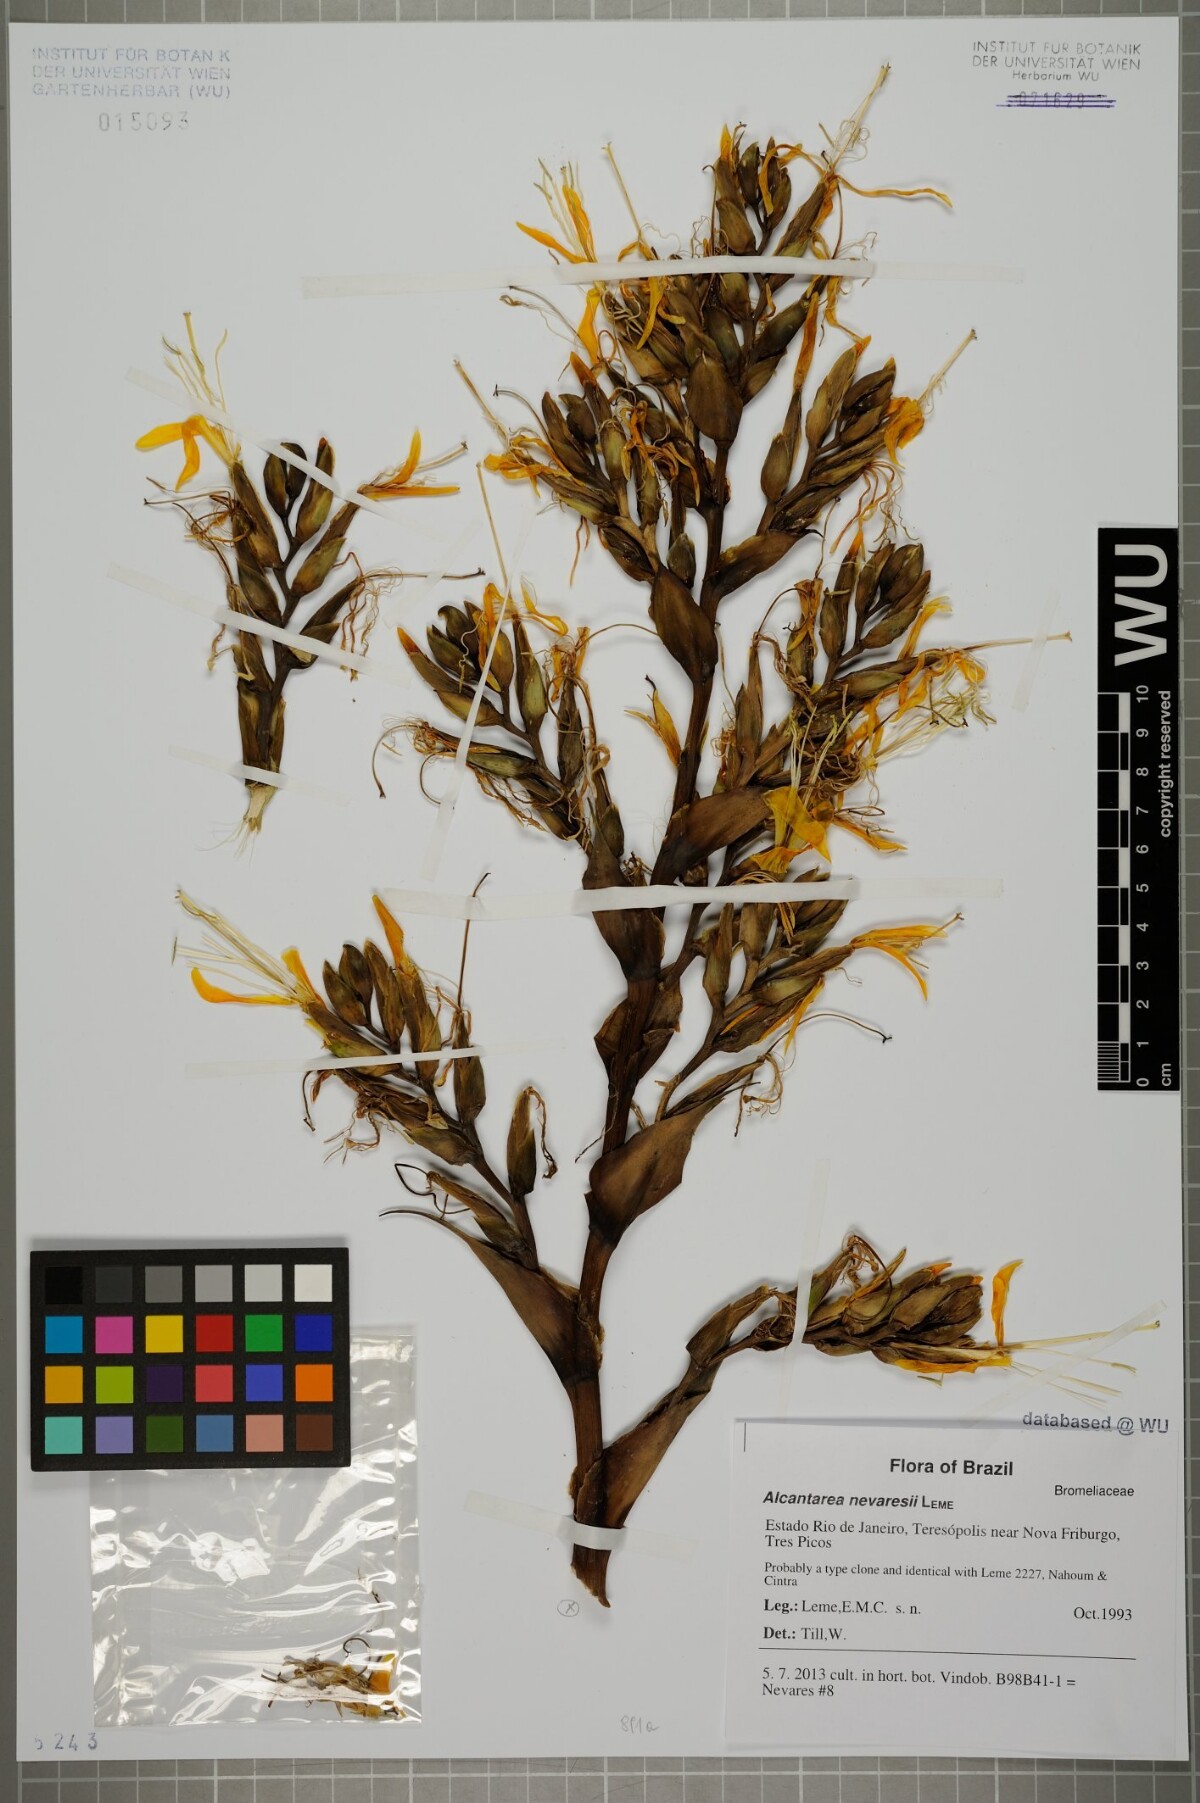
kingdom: Plantae
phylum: Tracheophyta
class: Liliopsida
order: Poales
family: Bromeliaceae
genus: Alcantarea
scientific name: Alcantarea nevaresii
